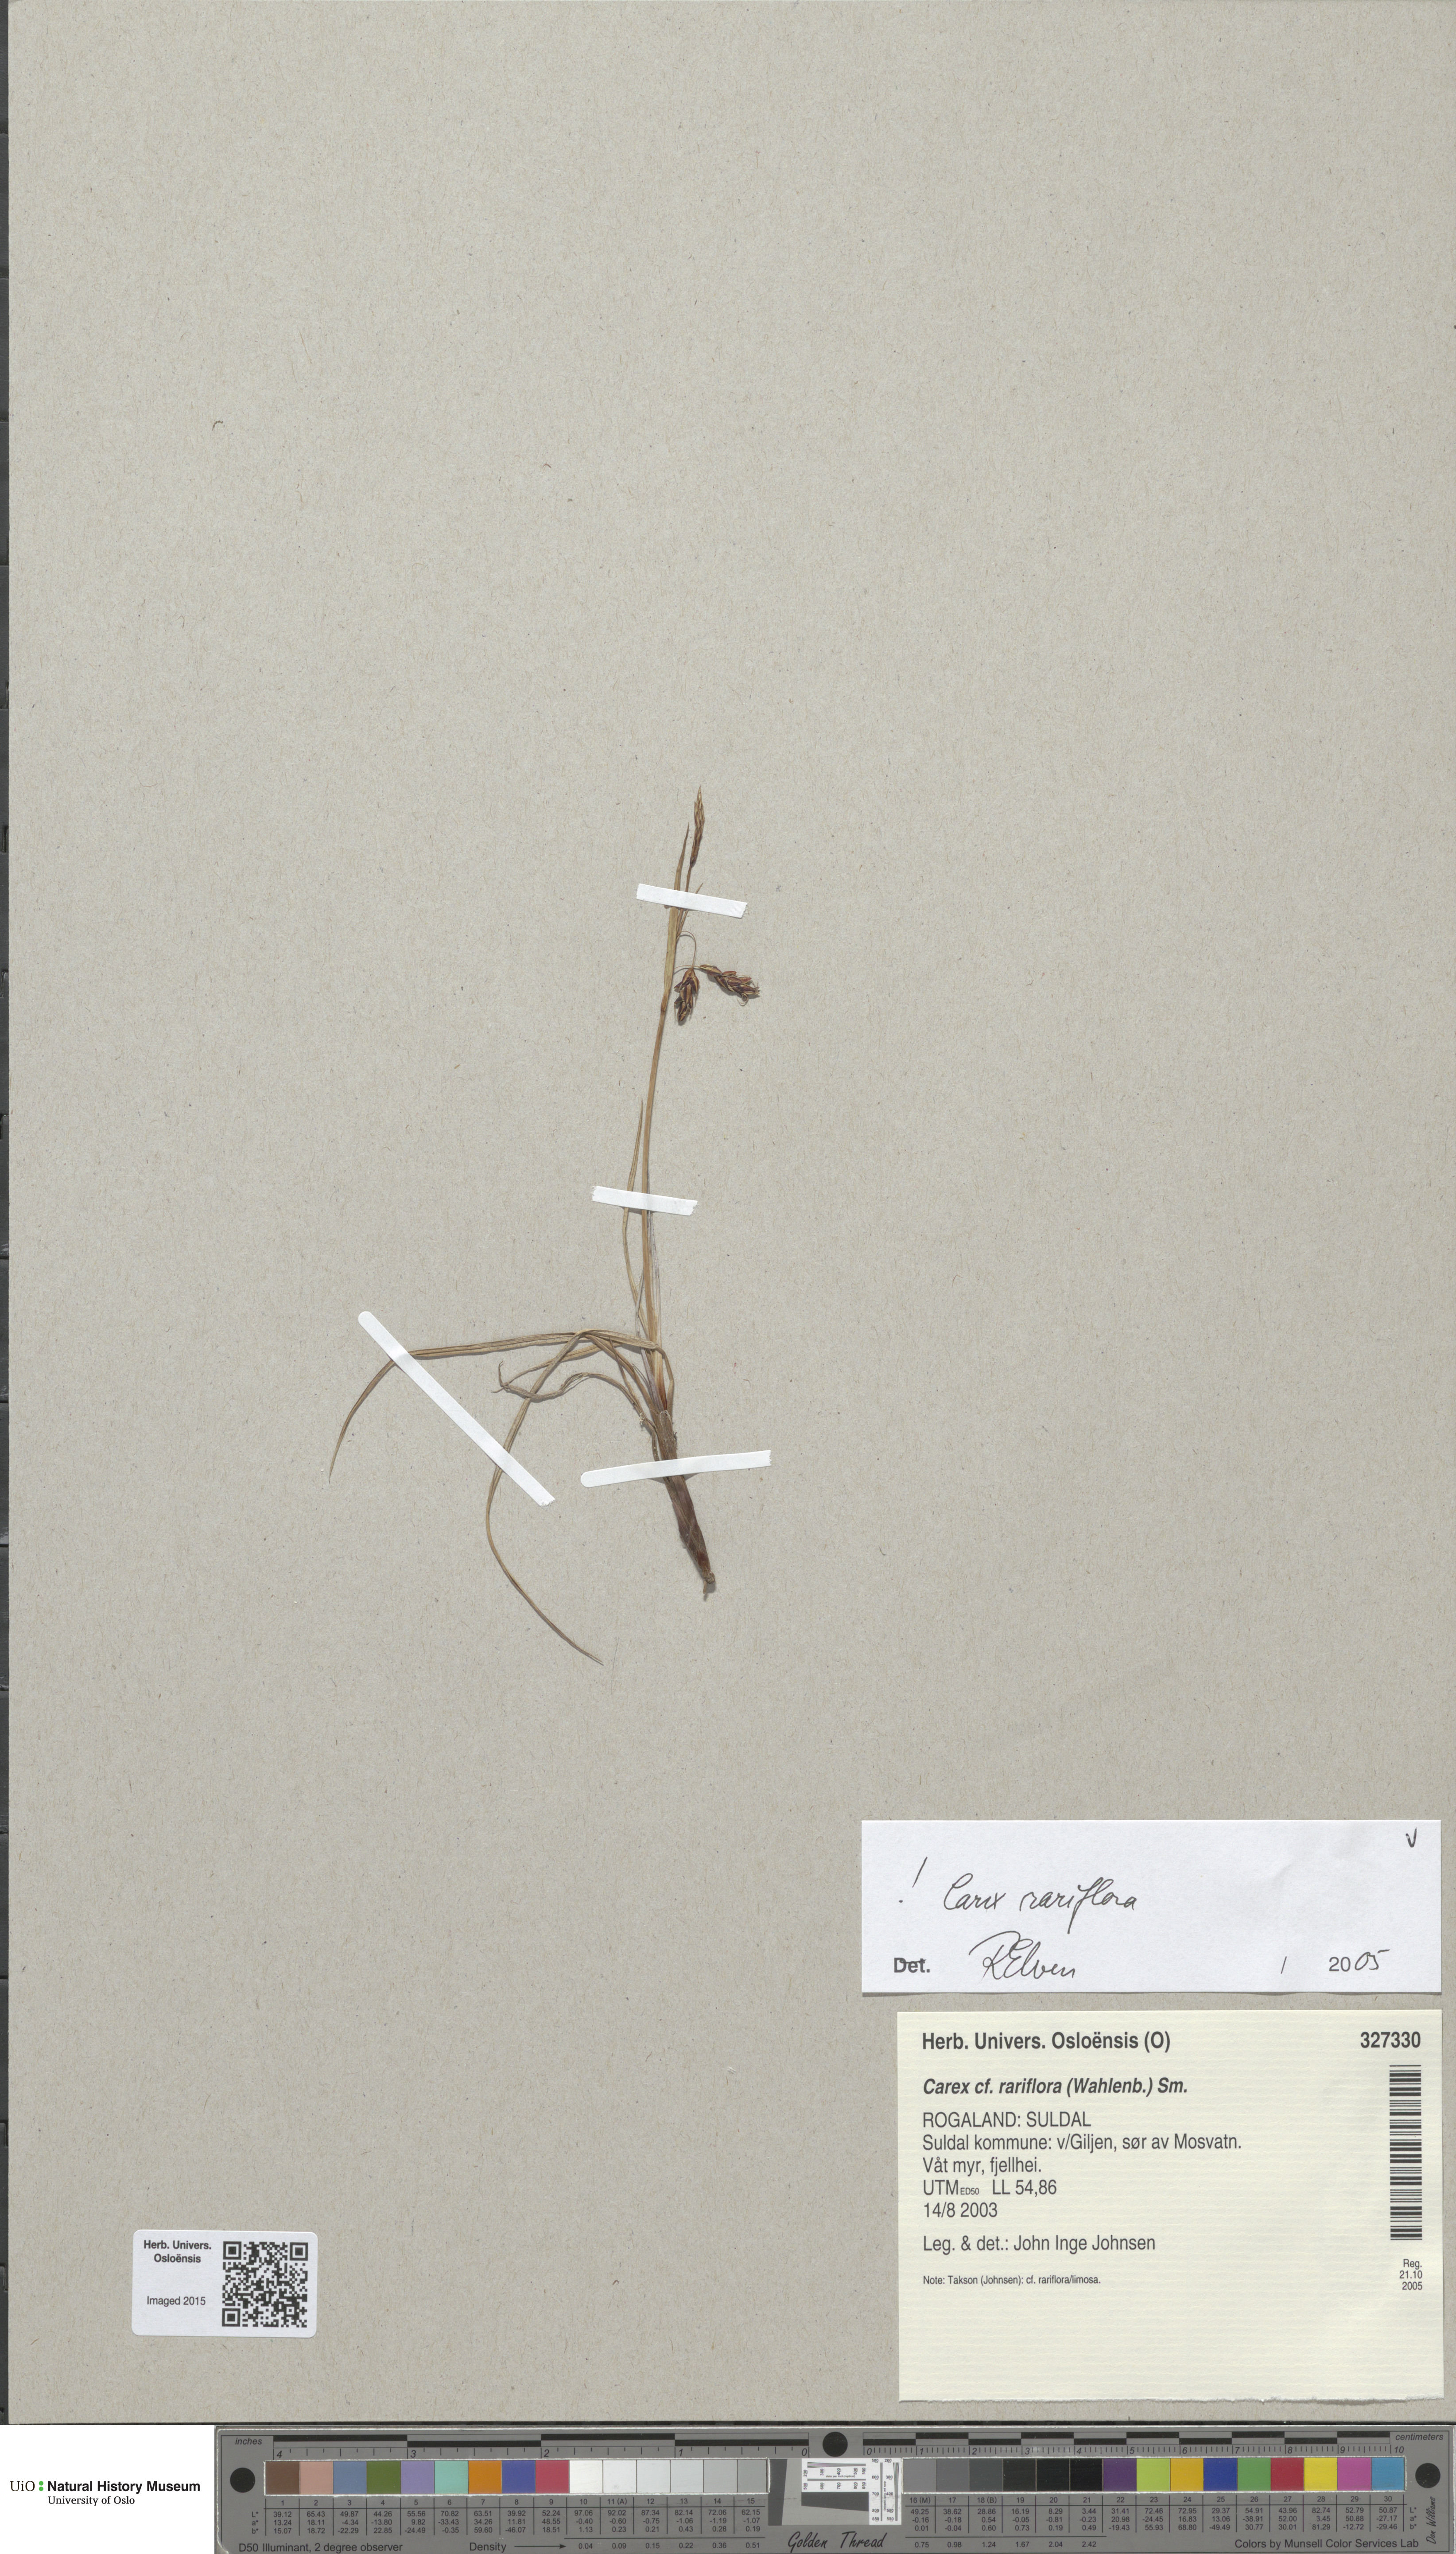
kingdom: Plantae
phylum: Tracheophyta
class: Liliopsida
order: Poales
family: Cyperaceae
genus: Carex
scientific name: Carex rariflora
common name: Loose-flowered alpine sedge
